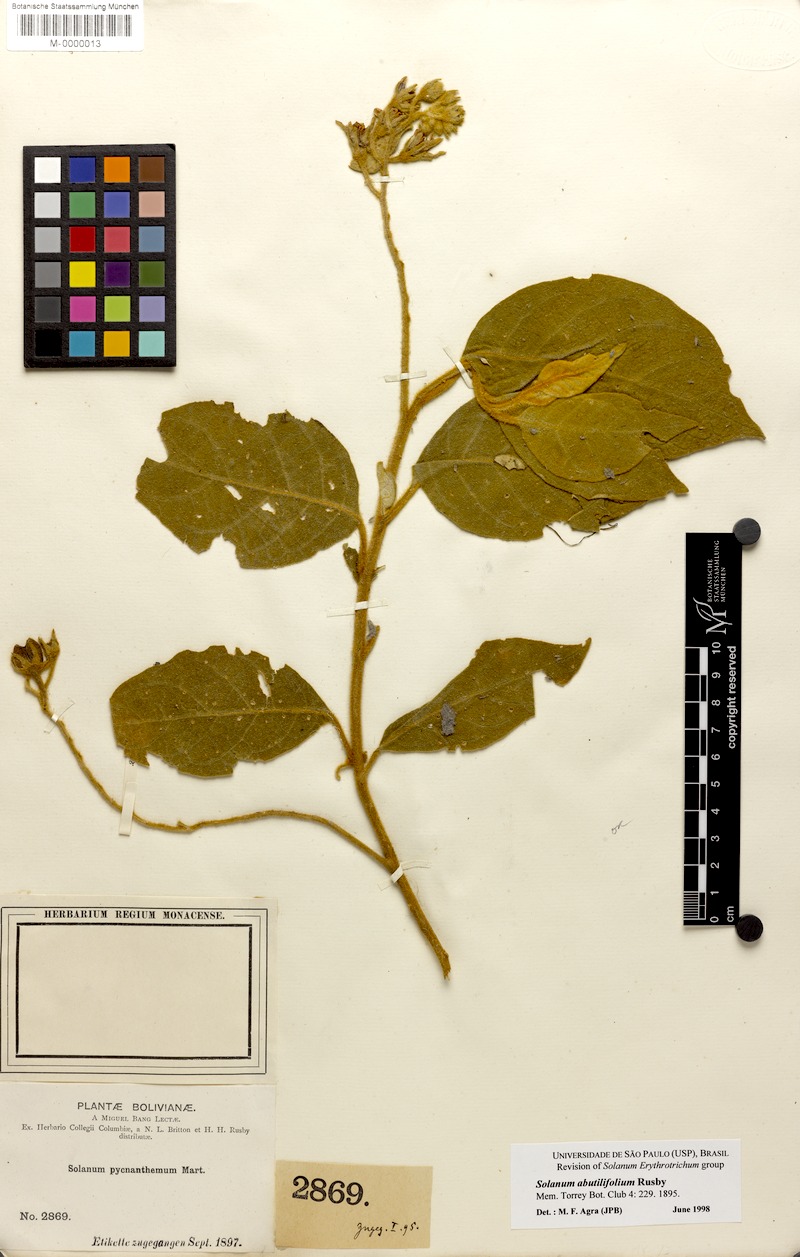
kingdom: Plantae
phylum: Tracheophyta
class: Magnoliopsida
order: Solanales
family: Solanaceae
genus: Solanum
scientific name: Solanum abutilifolium
